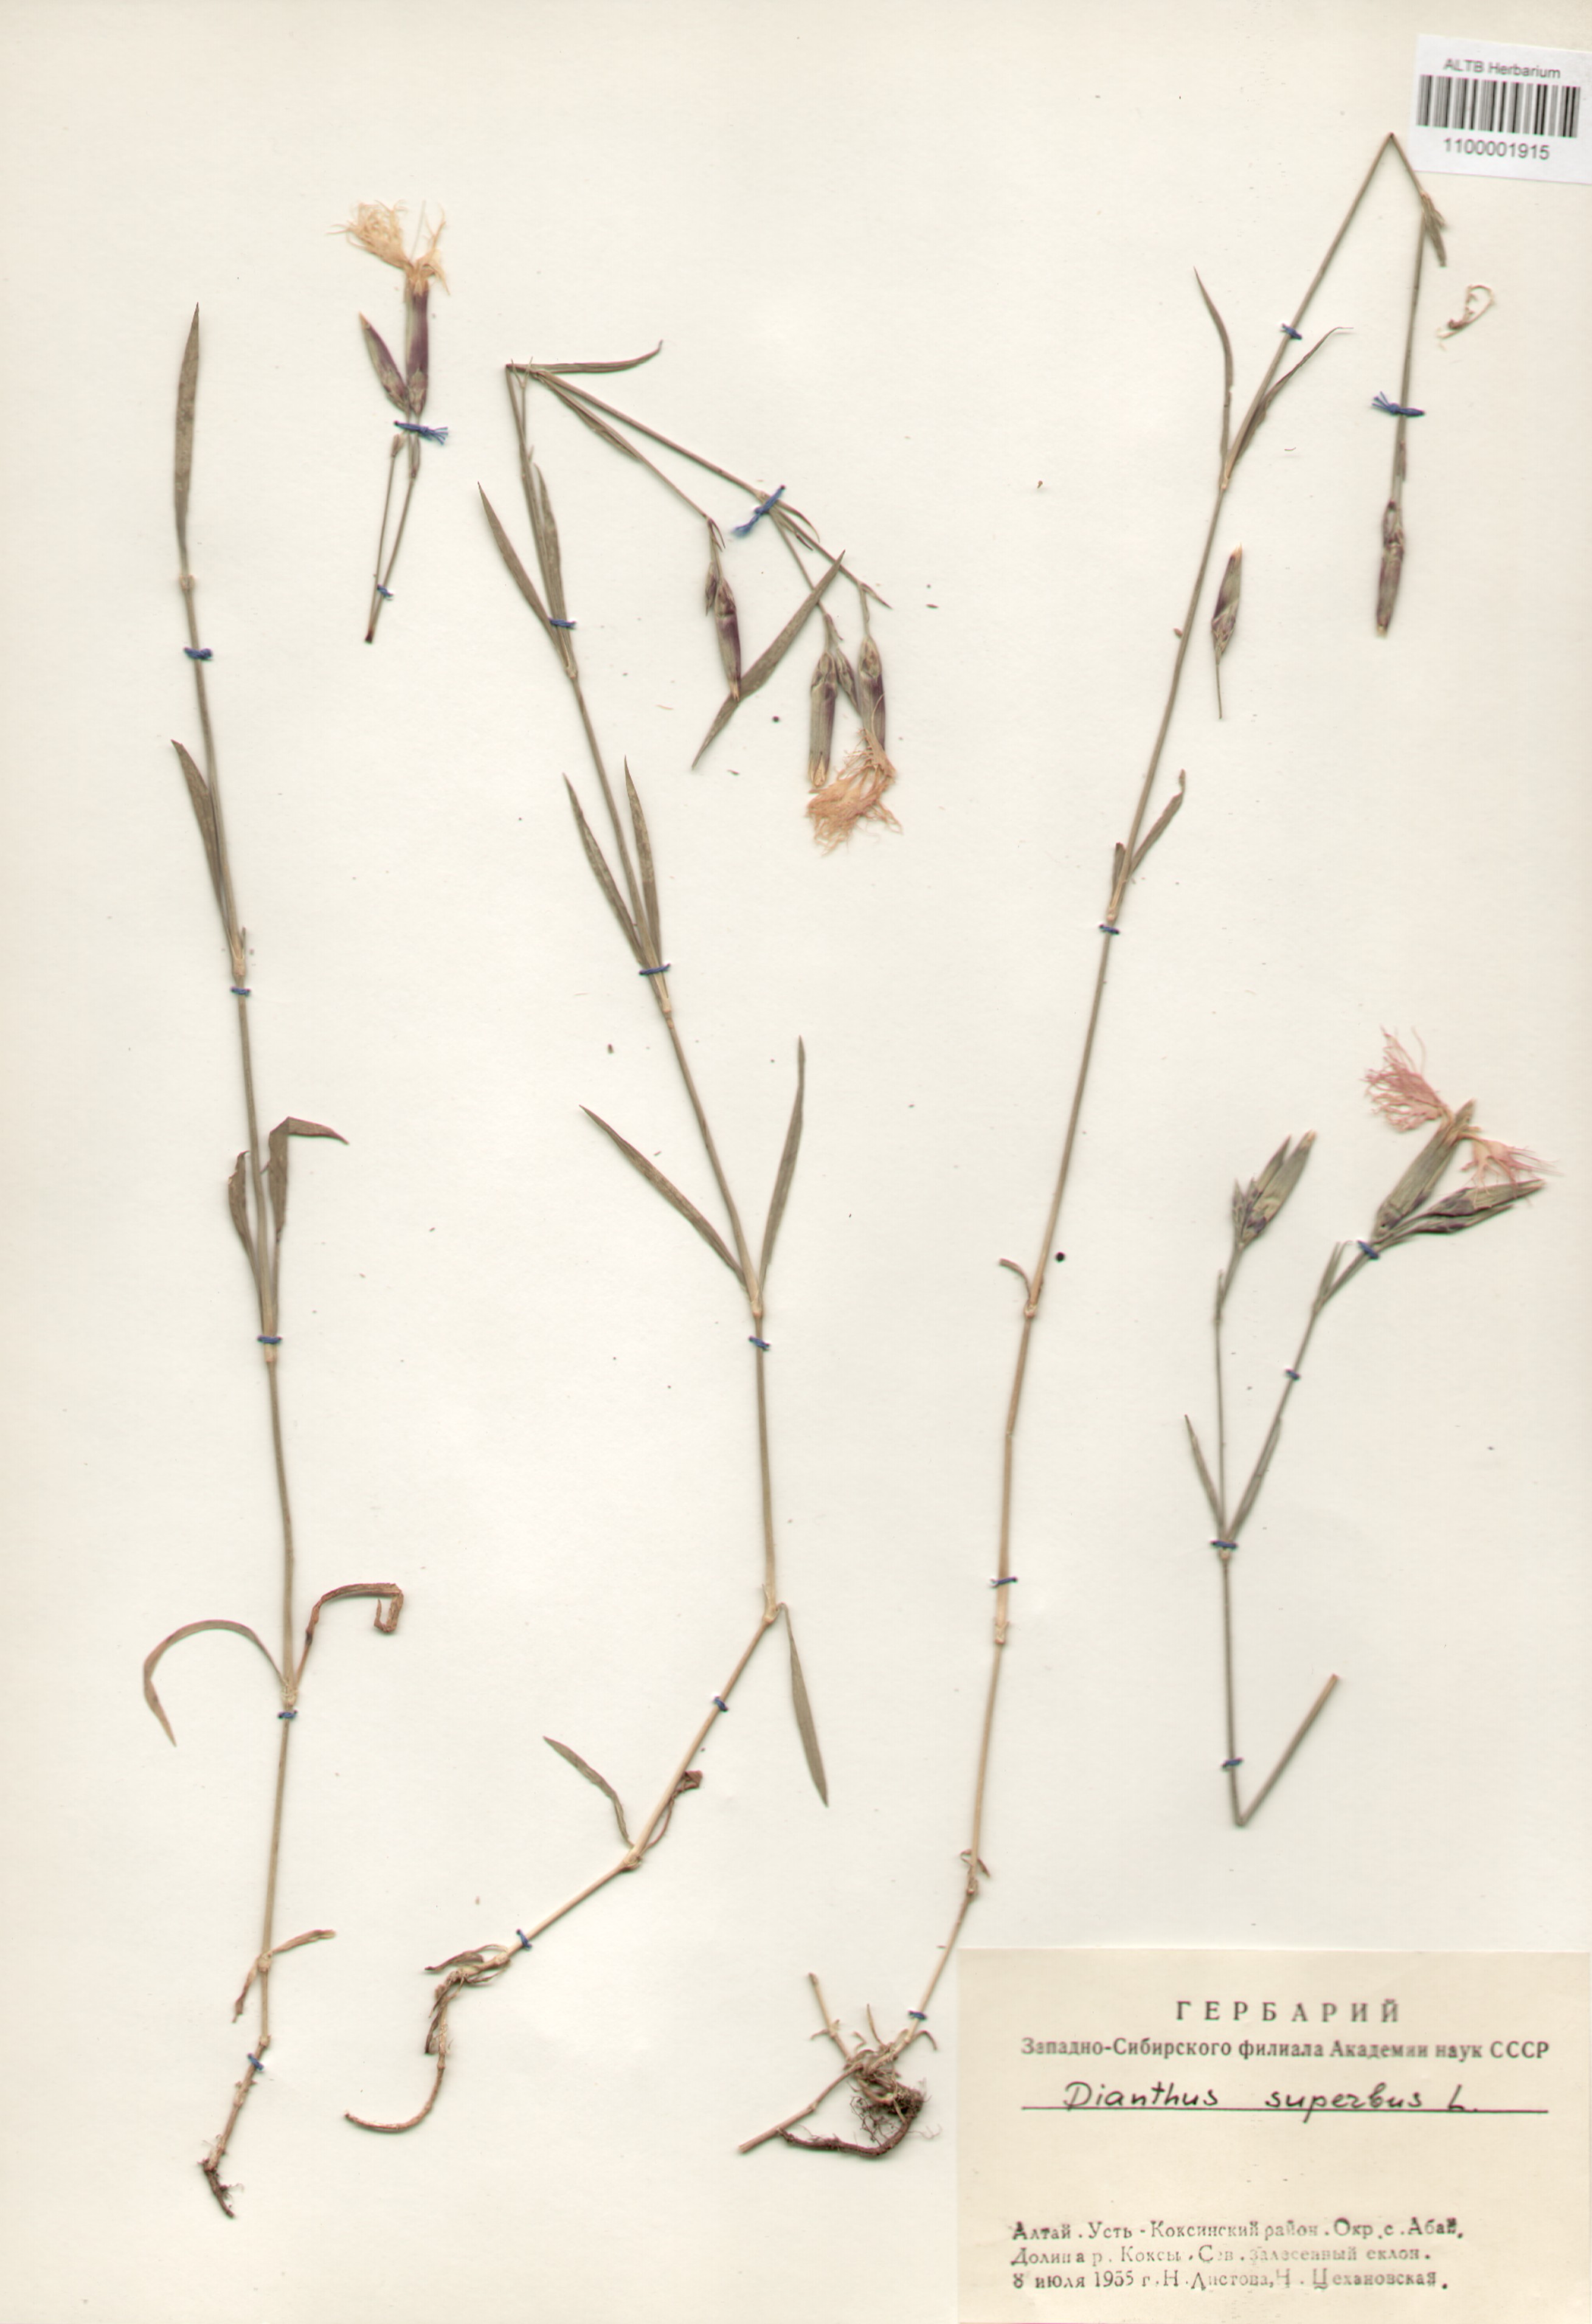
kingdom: Plantae
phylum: Tracheophyta
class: Magnoliopsida
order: Caryophyllales
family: Caryophyllaceae
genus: Dianthus
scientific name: Dianthus superbus
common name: Fringed pink
